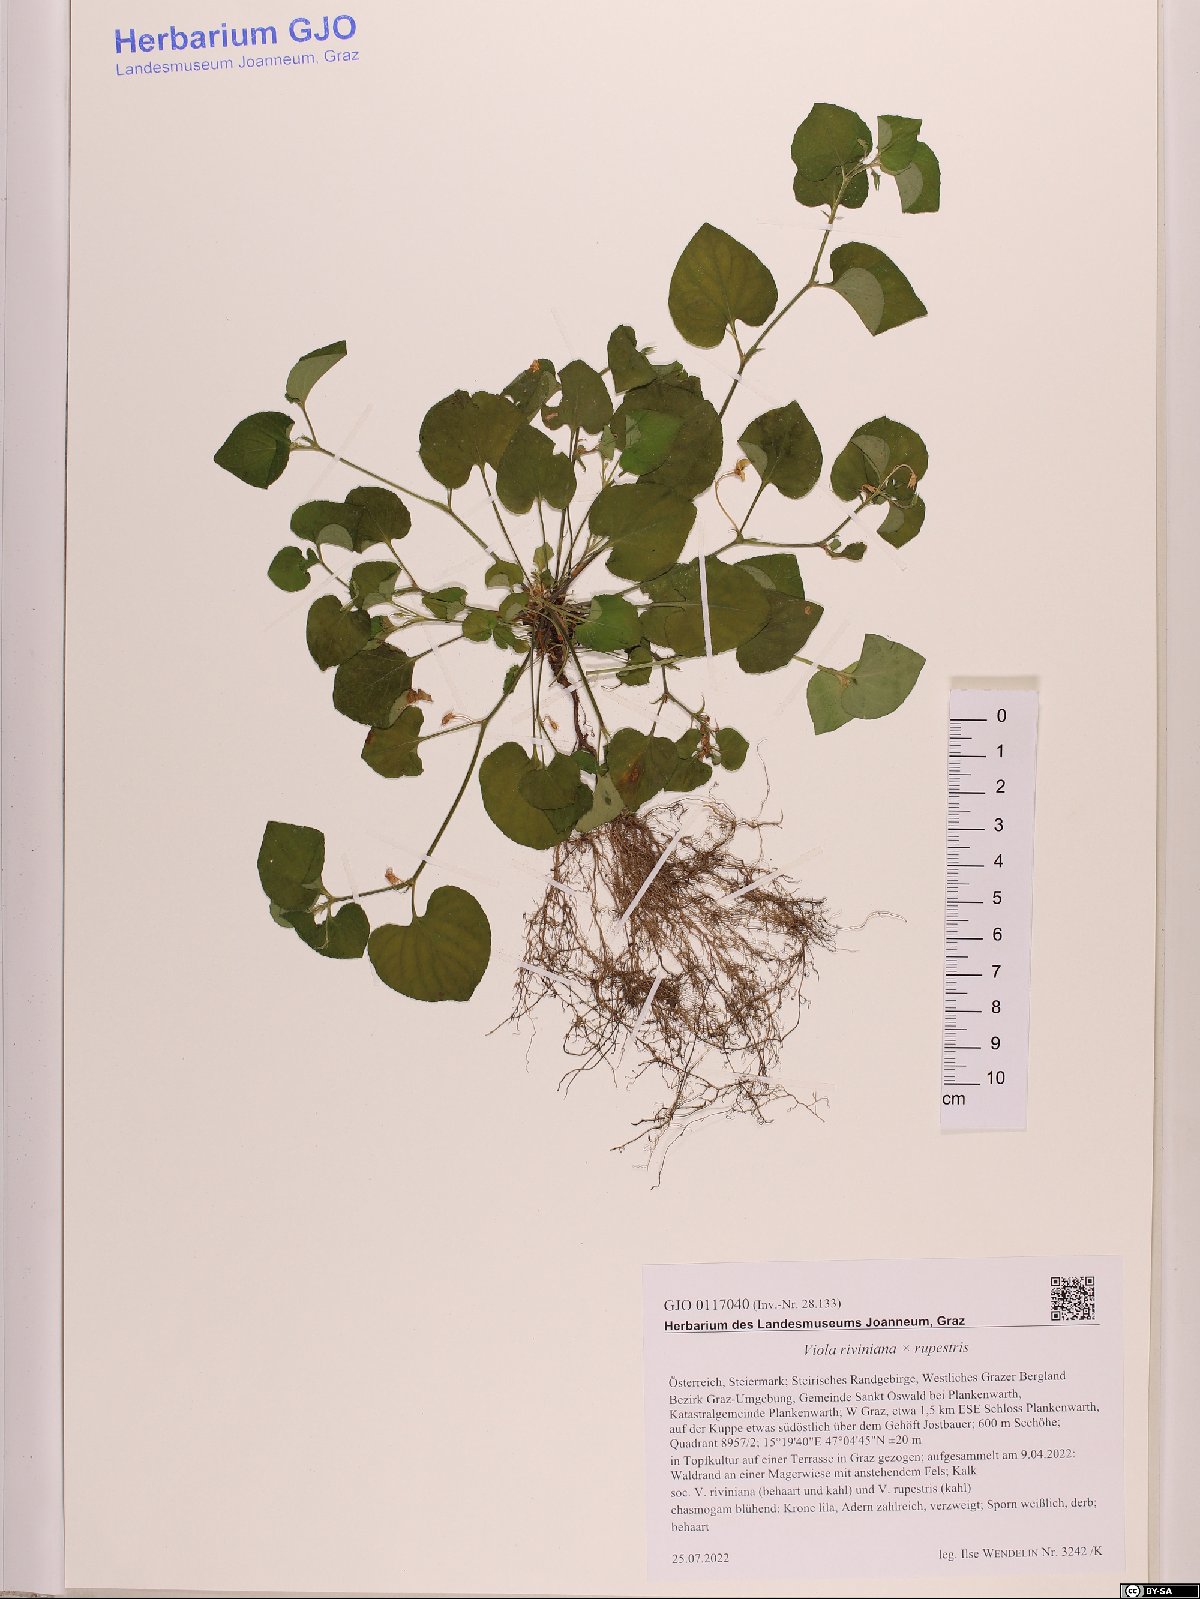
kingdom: Plantae
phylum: Tracheophyta
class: Magnoliopsida
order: Malpighiales
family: Violaceae
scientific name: Violaceae
